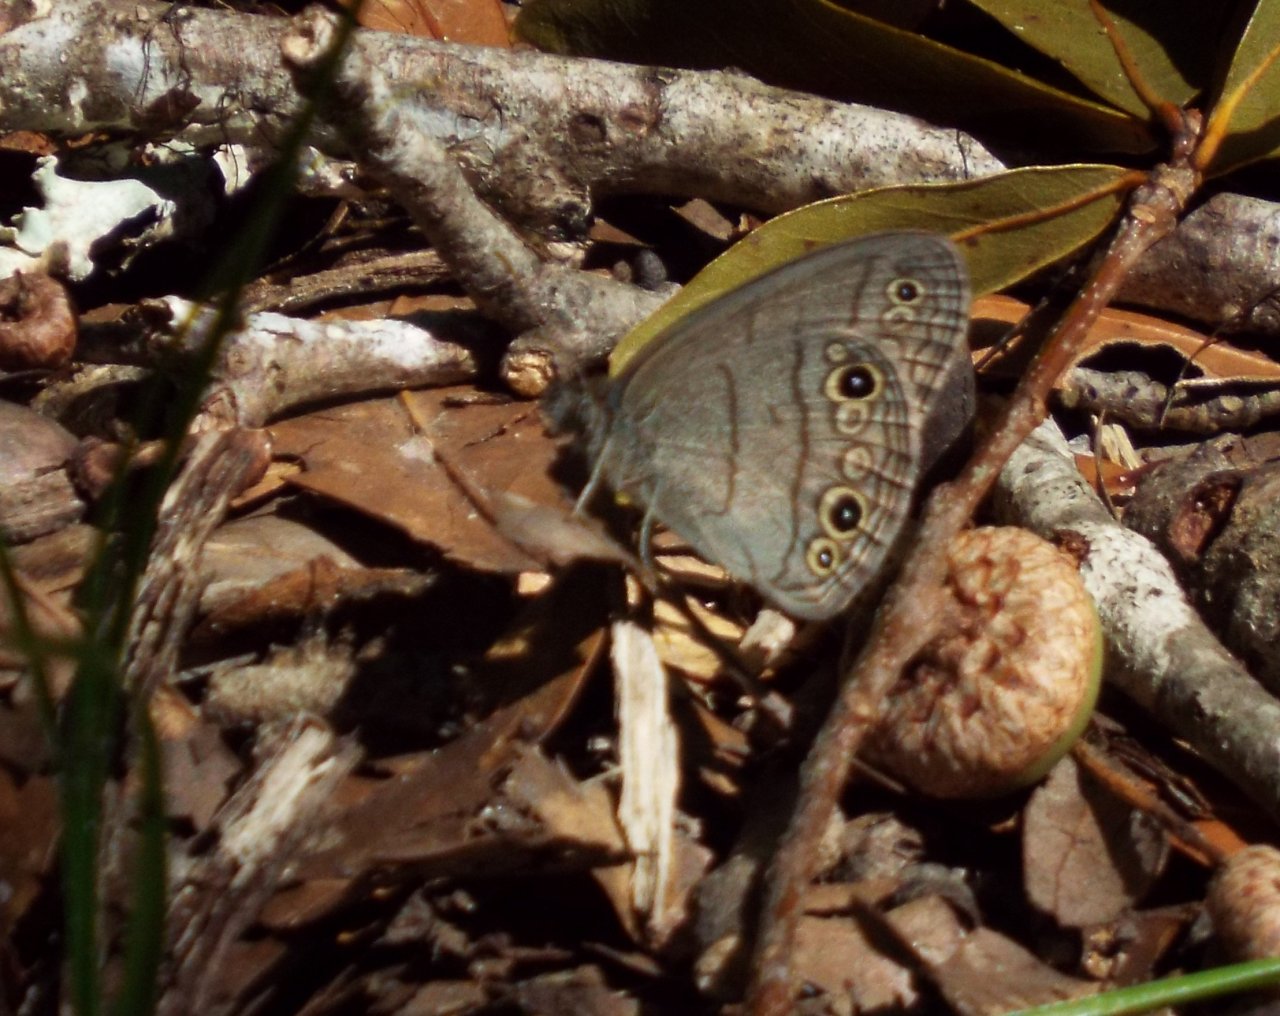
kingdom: Animalia
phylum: Arthropoda
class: Insecta
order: Lepidoptera
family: Nymphalidae
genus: Hermeuptychia
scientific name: Hermeuptychia hermes
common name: Carolina Satyr
